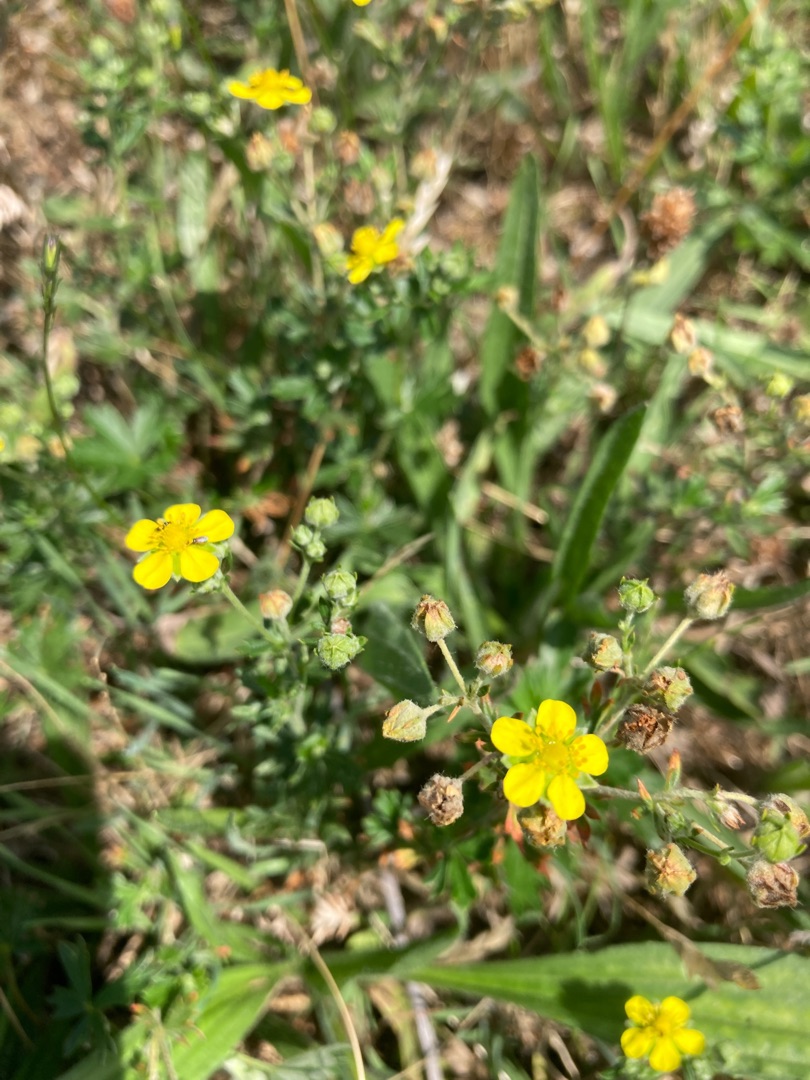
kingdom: Plantae
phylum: Tracheophyta
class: Magnoliopsida
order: Rosales
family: Rosaceae
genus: Potentilla
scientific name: Potentilla argentea
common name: Sølv-potentil
